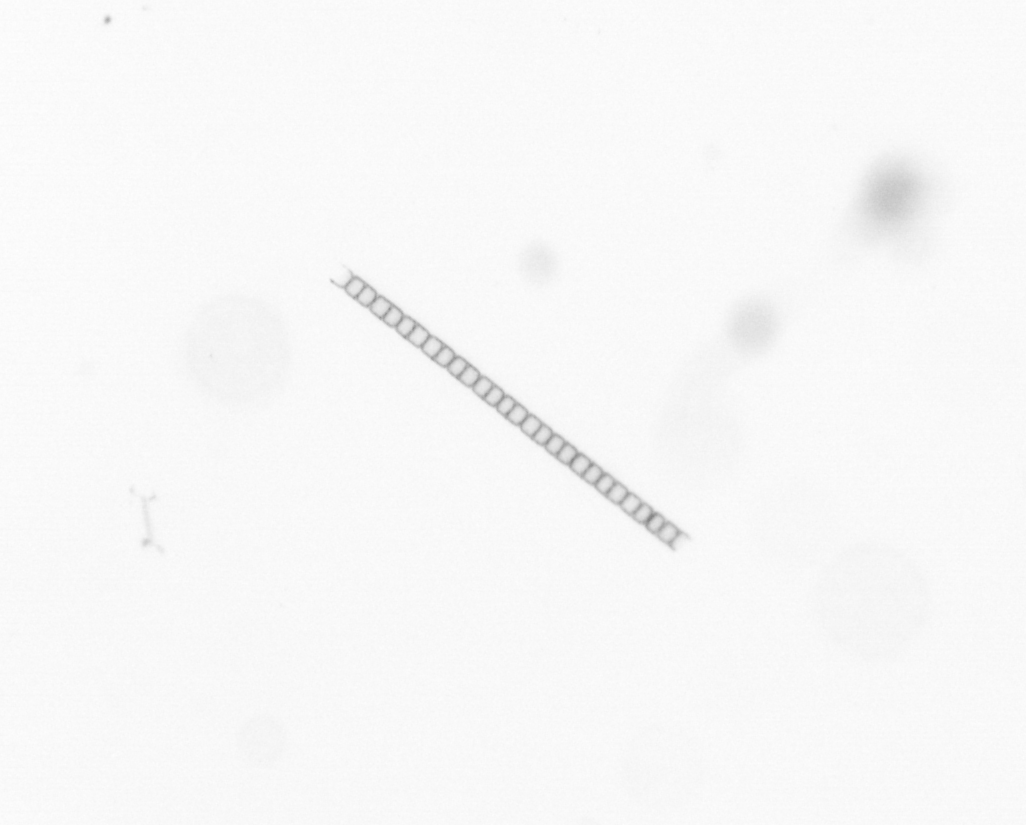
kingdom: Chromista
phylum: Ochrophyta
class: Bacillariophyceae
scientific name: Bacillariophyceae
